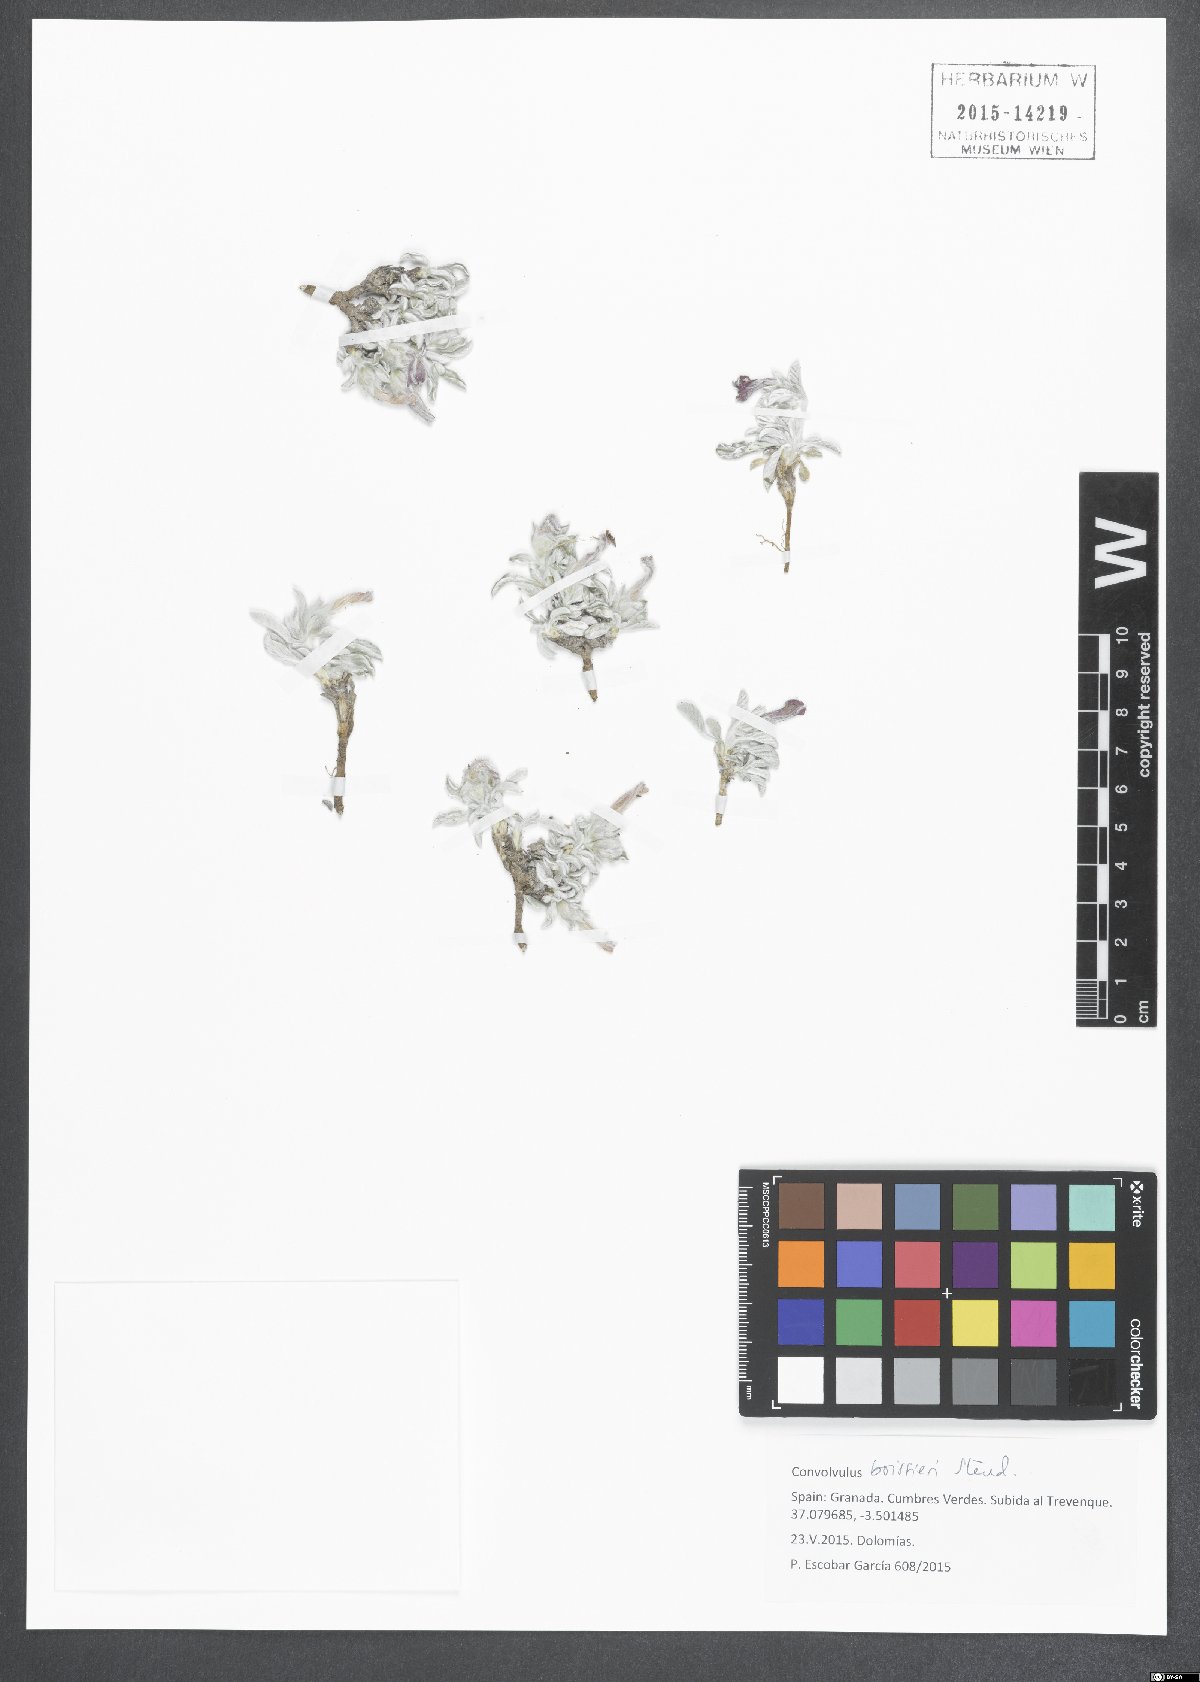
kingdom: Plantae
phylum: Tracheophyta
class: Magnoliopsida
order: Solanales
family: Convolvulaceae
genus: Convolvulus
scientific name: Convolvulus boissieri
